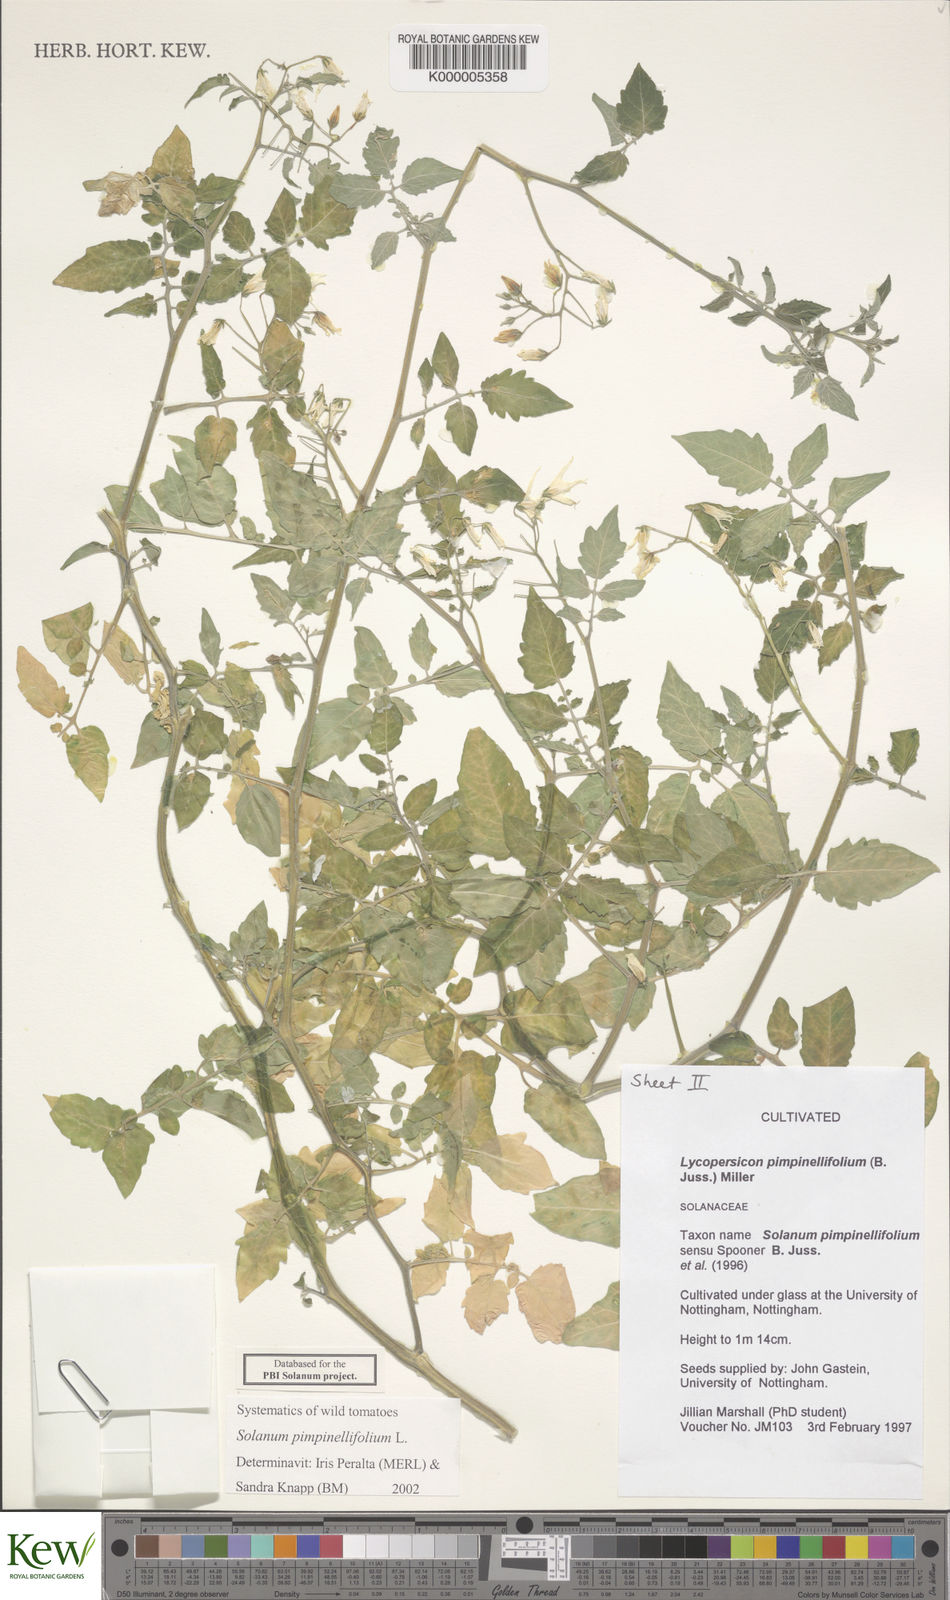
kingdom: Plantae
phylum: Tracheophyta
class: Magnoliopsida
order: Solanales
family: Solanaceae
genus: Solanum
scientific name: Solanum pimpinellifolium
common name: Currant-tomato
